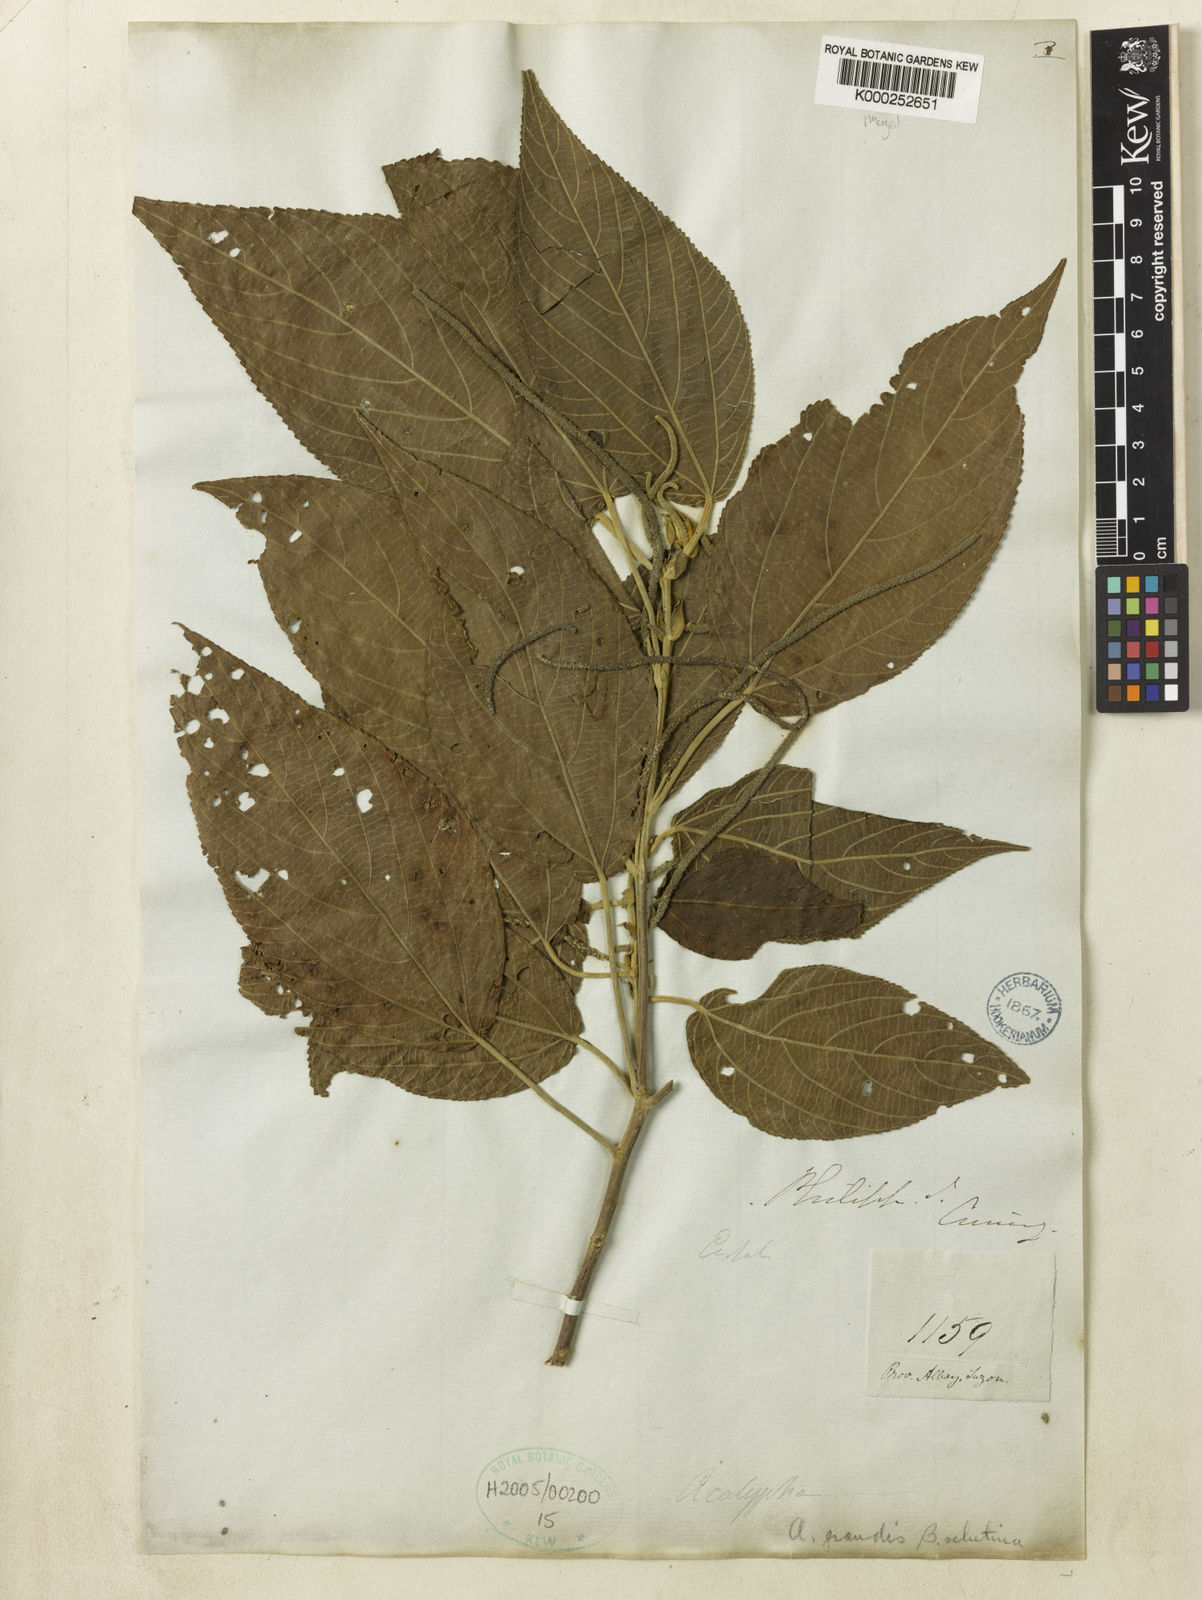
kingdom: Plantae
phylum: Tracheophyta
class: Magnoliopsida
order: Malpighiales
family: Euphorbiaceae
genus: Acalypha
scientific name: Acalypha angatensis
